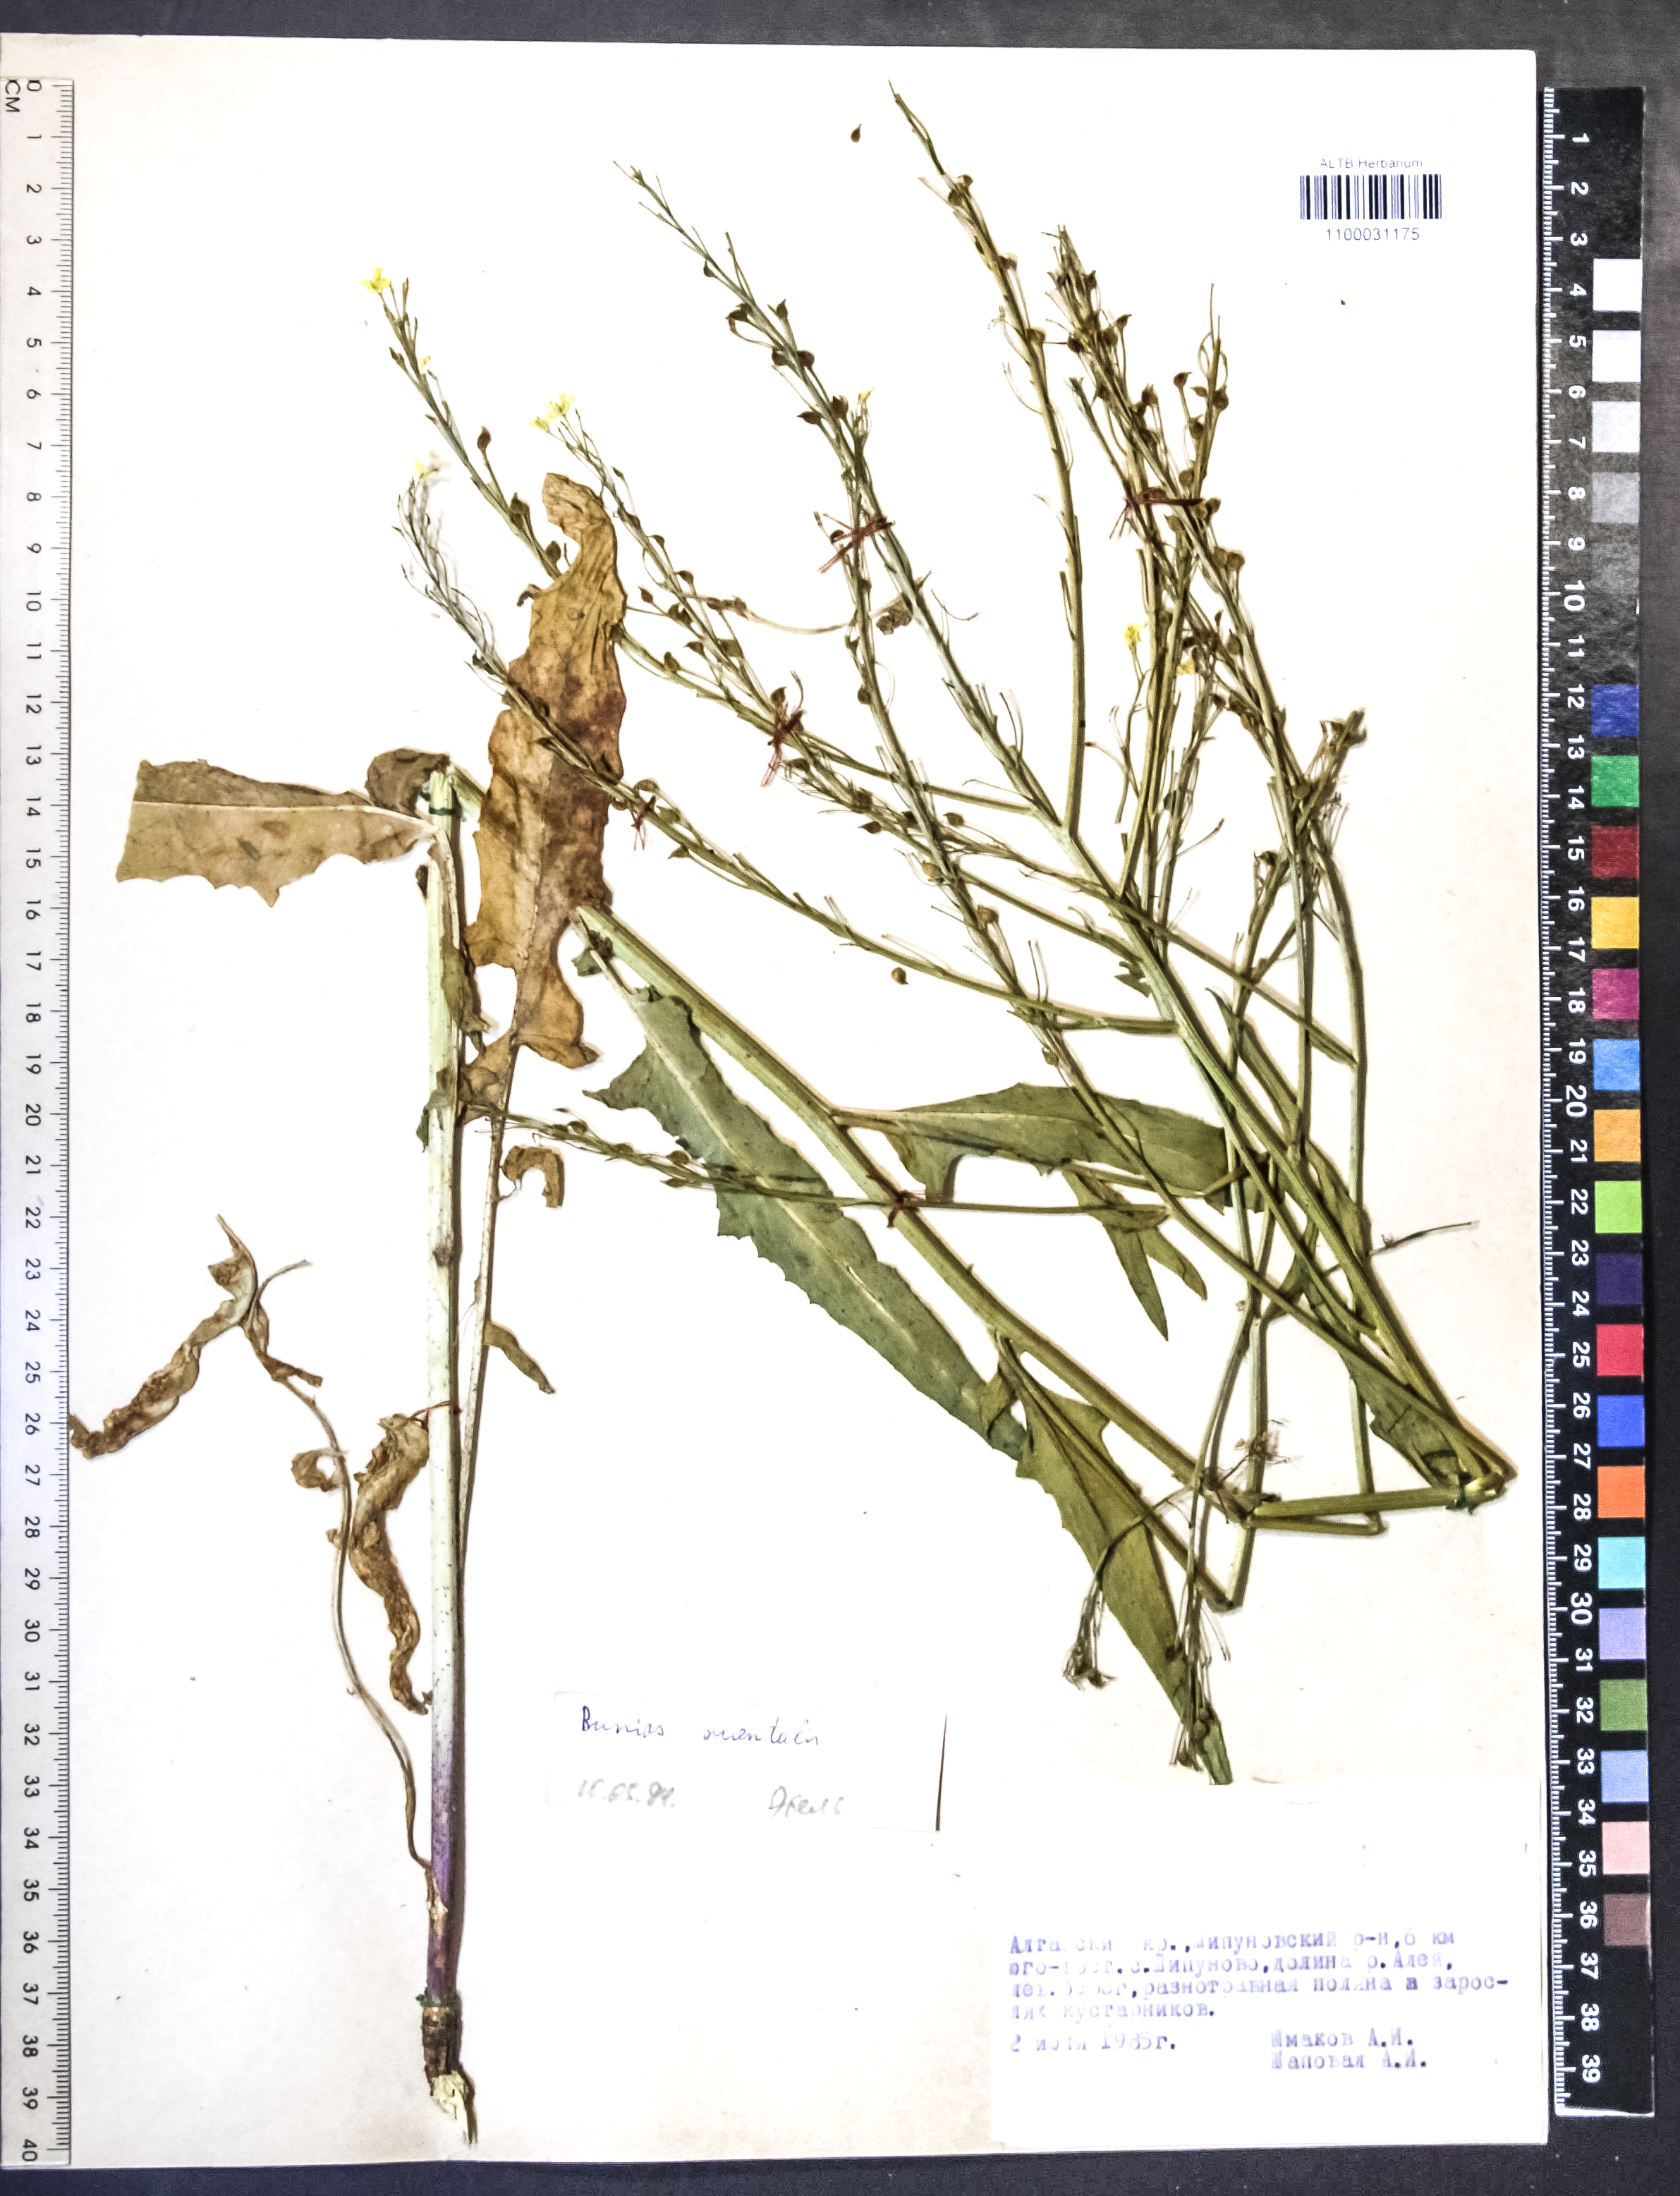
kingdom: Plantae
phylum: Tracheophyta
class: Magnoliopsida
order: Brassicales
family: Brassicaceae
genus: Bunias
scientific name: Bunias orientalis
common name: Warty-cabbage
